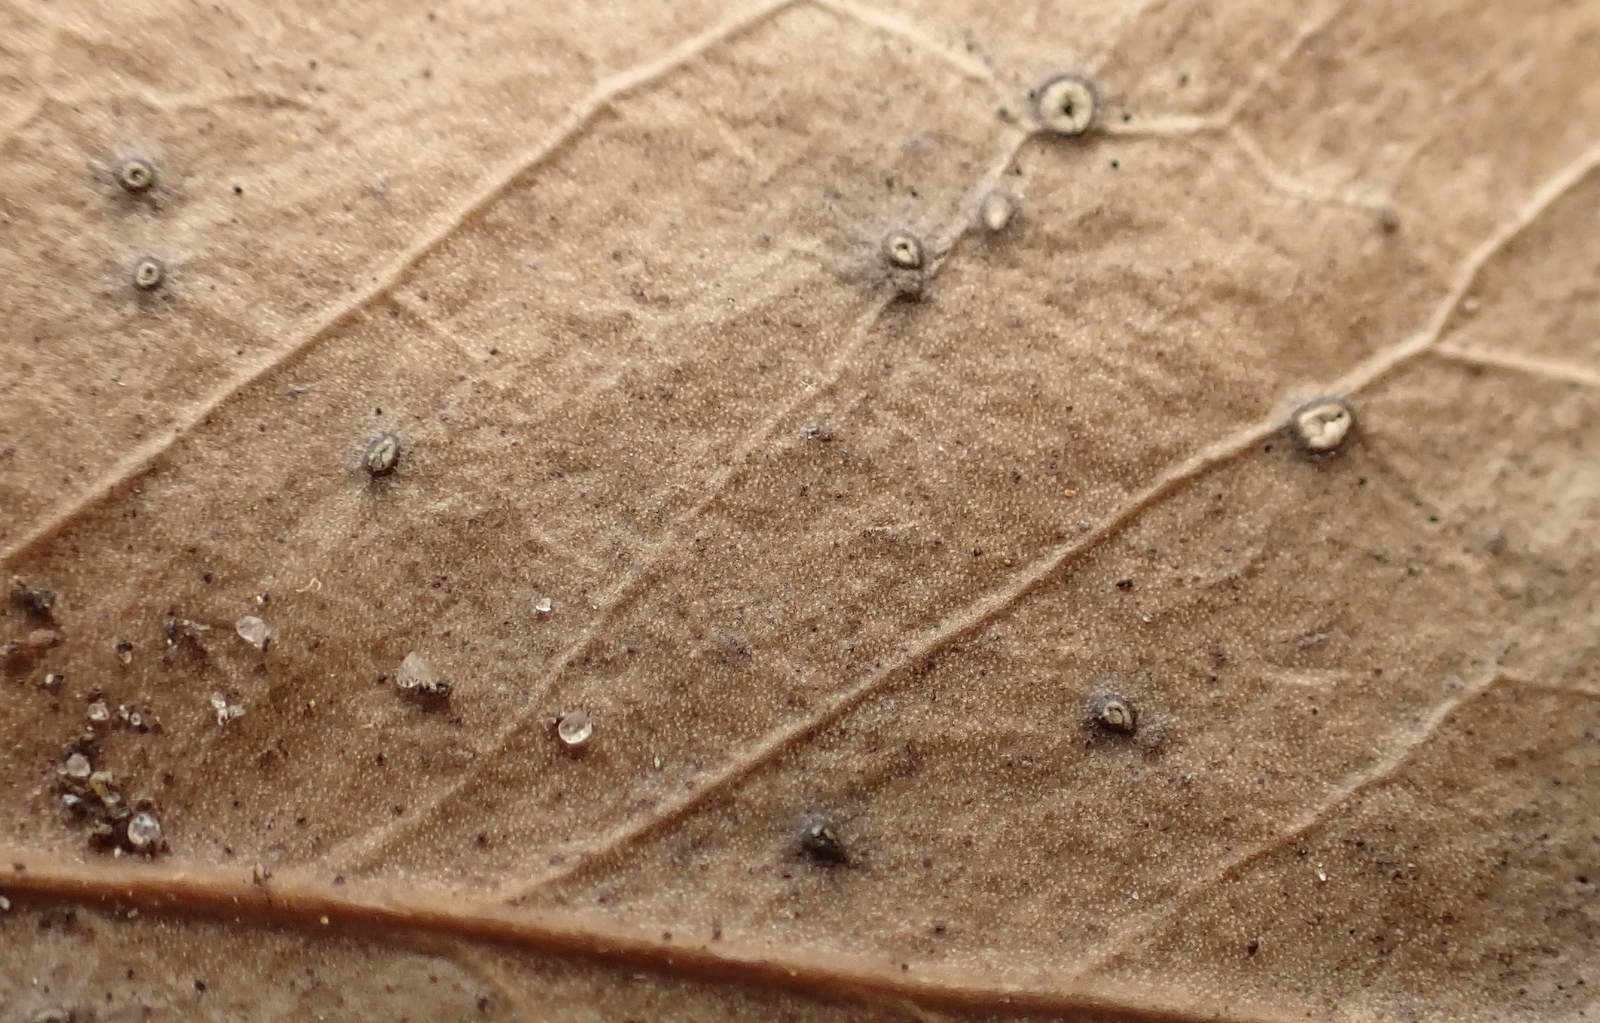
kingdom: Fungi
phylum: Ascomycota
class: Leotiomycetes
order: Phacidiales
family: Phacidiaceae
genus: Phacidium
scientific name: Phacidium lauri
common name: kristtorn-tandskive
